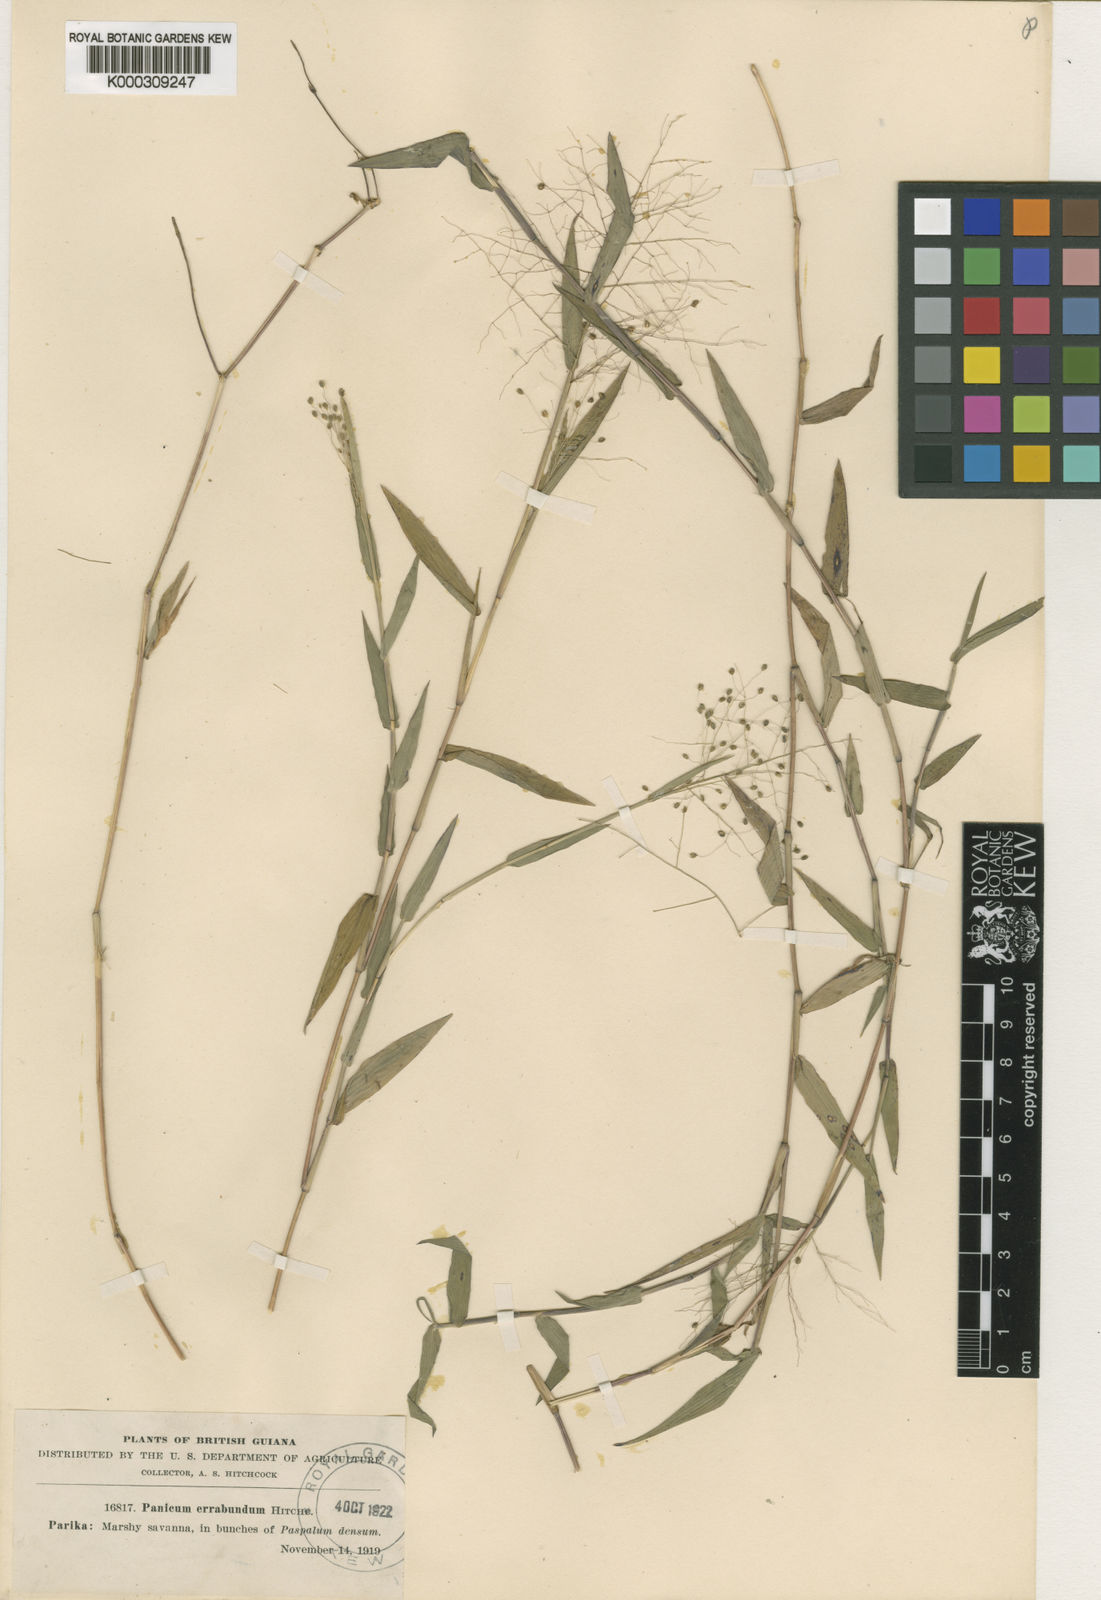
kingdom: Plantae
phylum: Tracheophyta
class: Liliopsida
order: Poales
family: Poaceae
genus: Trichanthecium
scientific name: Trichanthecium schwackeanum
